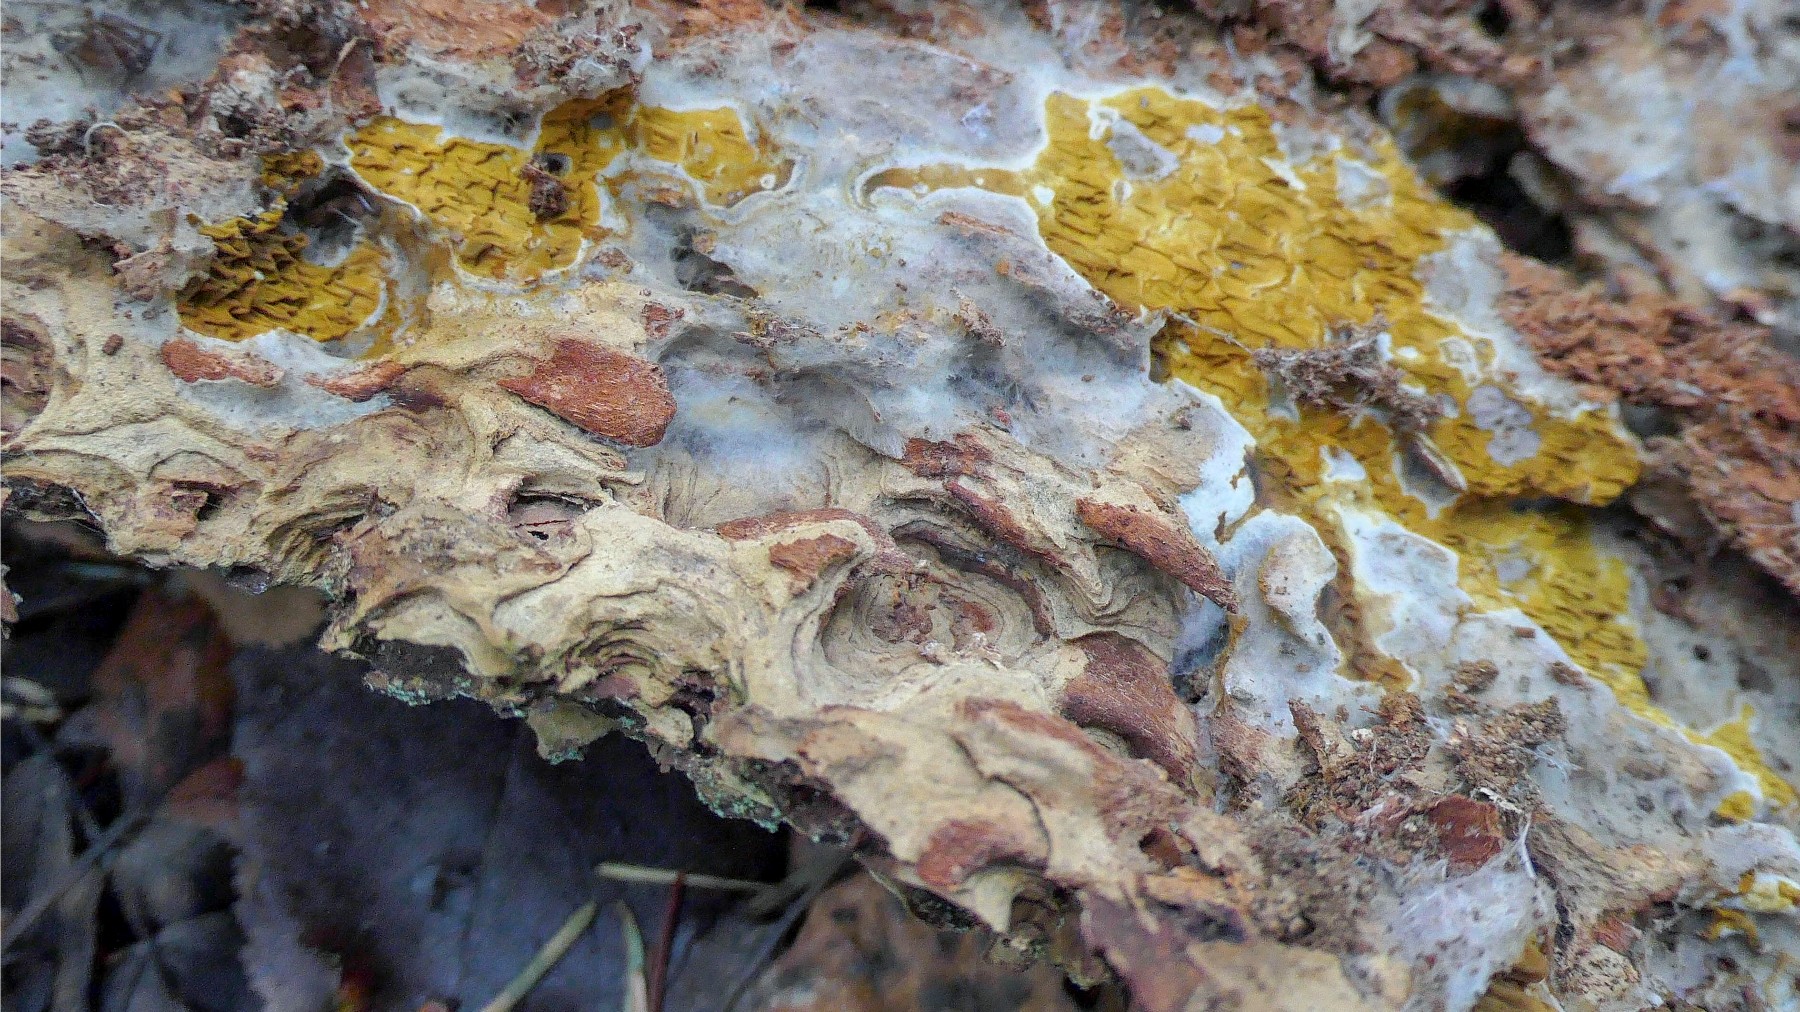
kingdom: Fungi
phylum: Basidiomycota
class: Agaricomycetes
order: Boletales
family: Serpulaceae
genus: Serpula
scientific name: Serpula himantioides
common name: tyndkødet hussvamp
